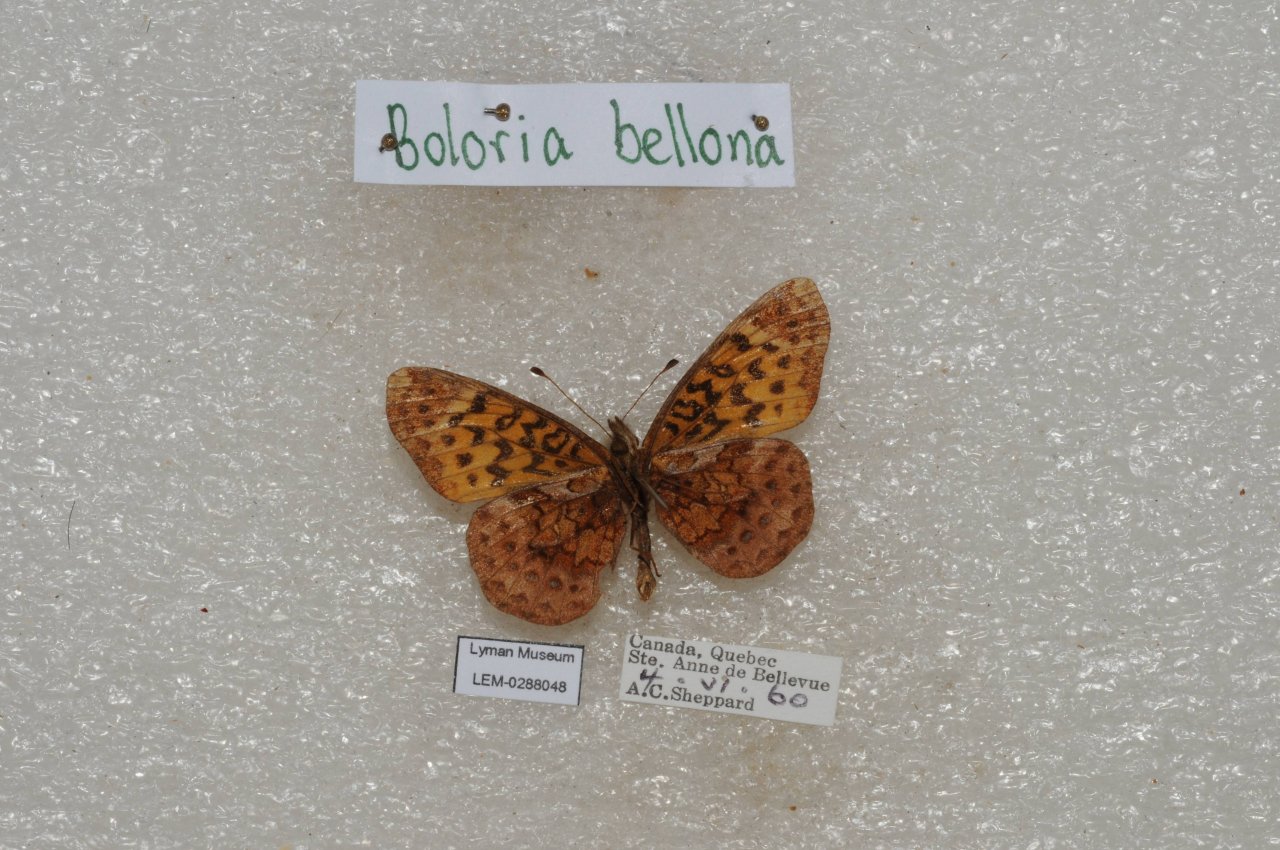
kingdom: Animalia
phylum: Arthropoda
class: Insecta
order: Lepidoptera
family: Nymphalidae
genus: Clossiana
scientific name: Clossiana toddi
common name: Meadow Fritillary
